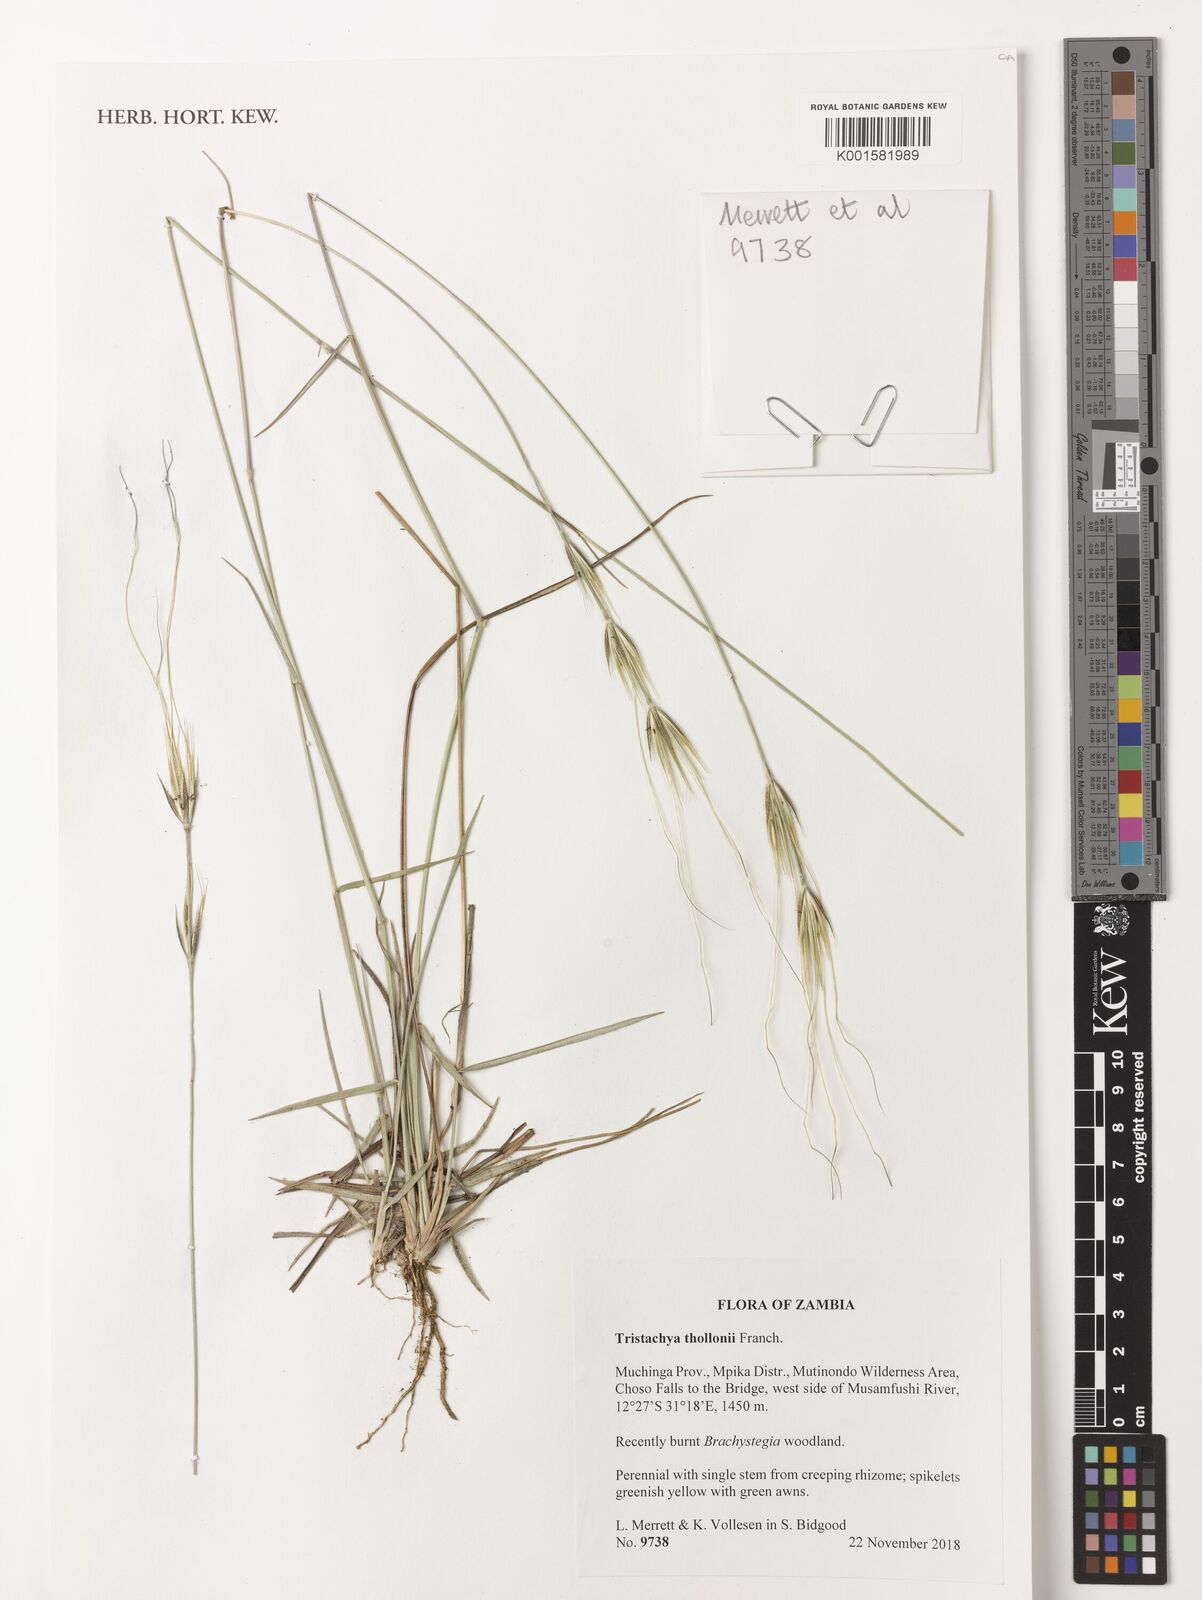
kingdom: Plantae
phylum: Tracheophyta
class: Liliopsida
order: Poales
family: Poaceae
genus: Tristachya
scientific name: Tristachya thollonii
